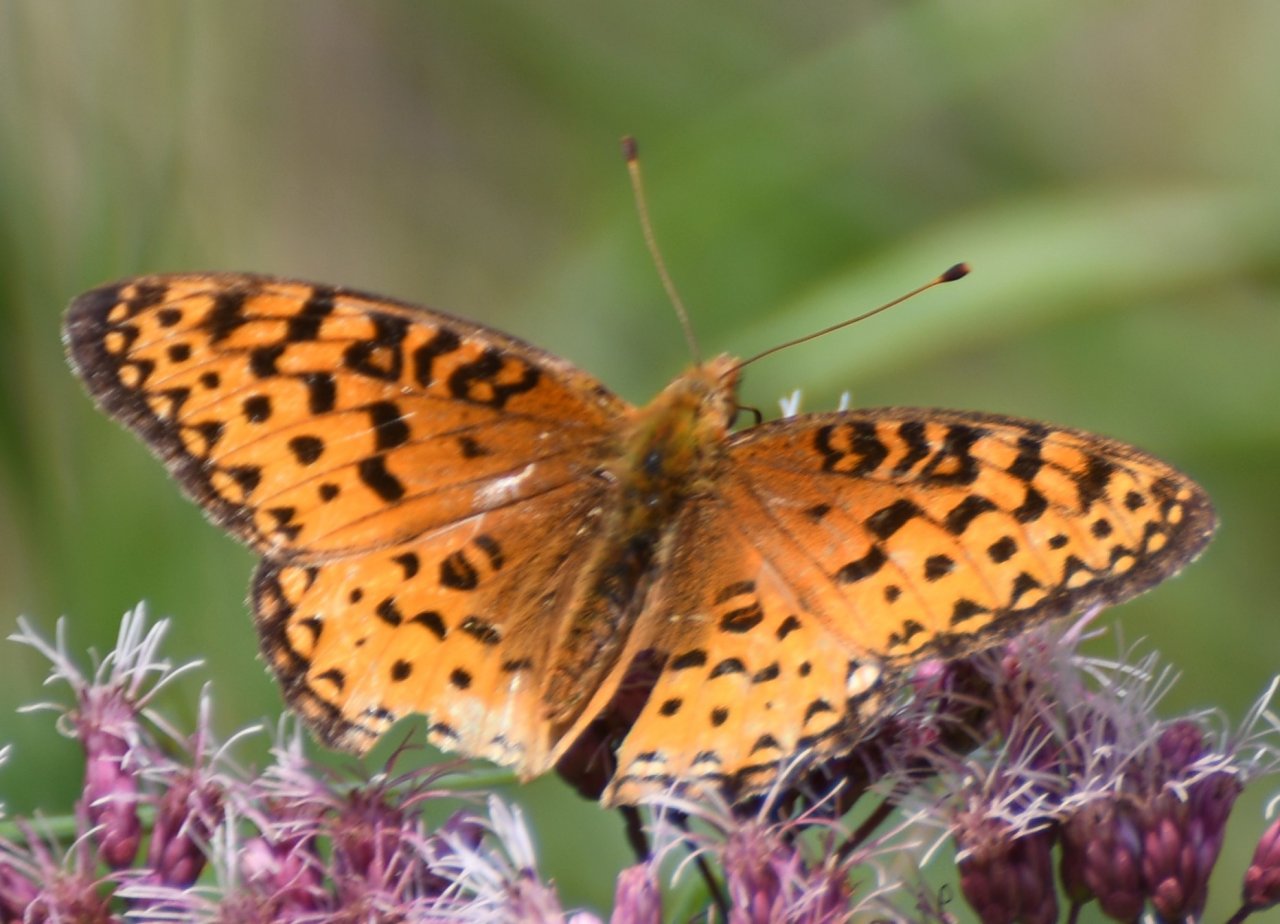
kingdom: Animalia
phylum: Arthropoda
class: Insecta
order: Lepidoptera
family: Nymphalidae
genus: Speyeria
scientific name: Speyeria aphrodite
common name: Aphrodite Fritillary
